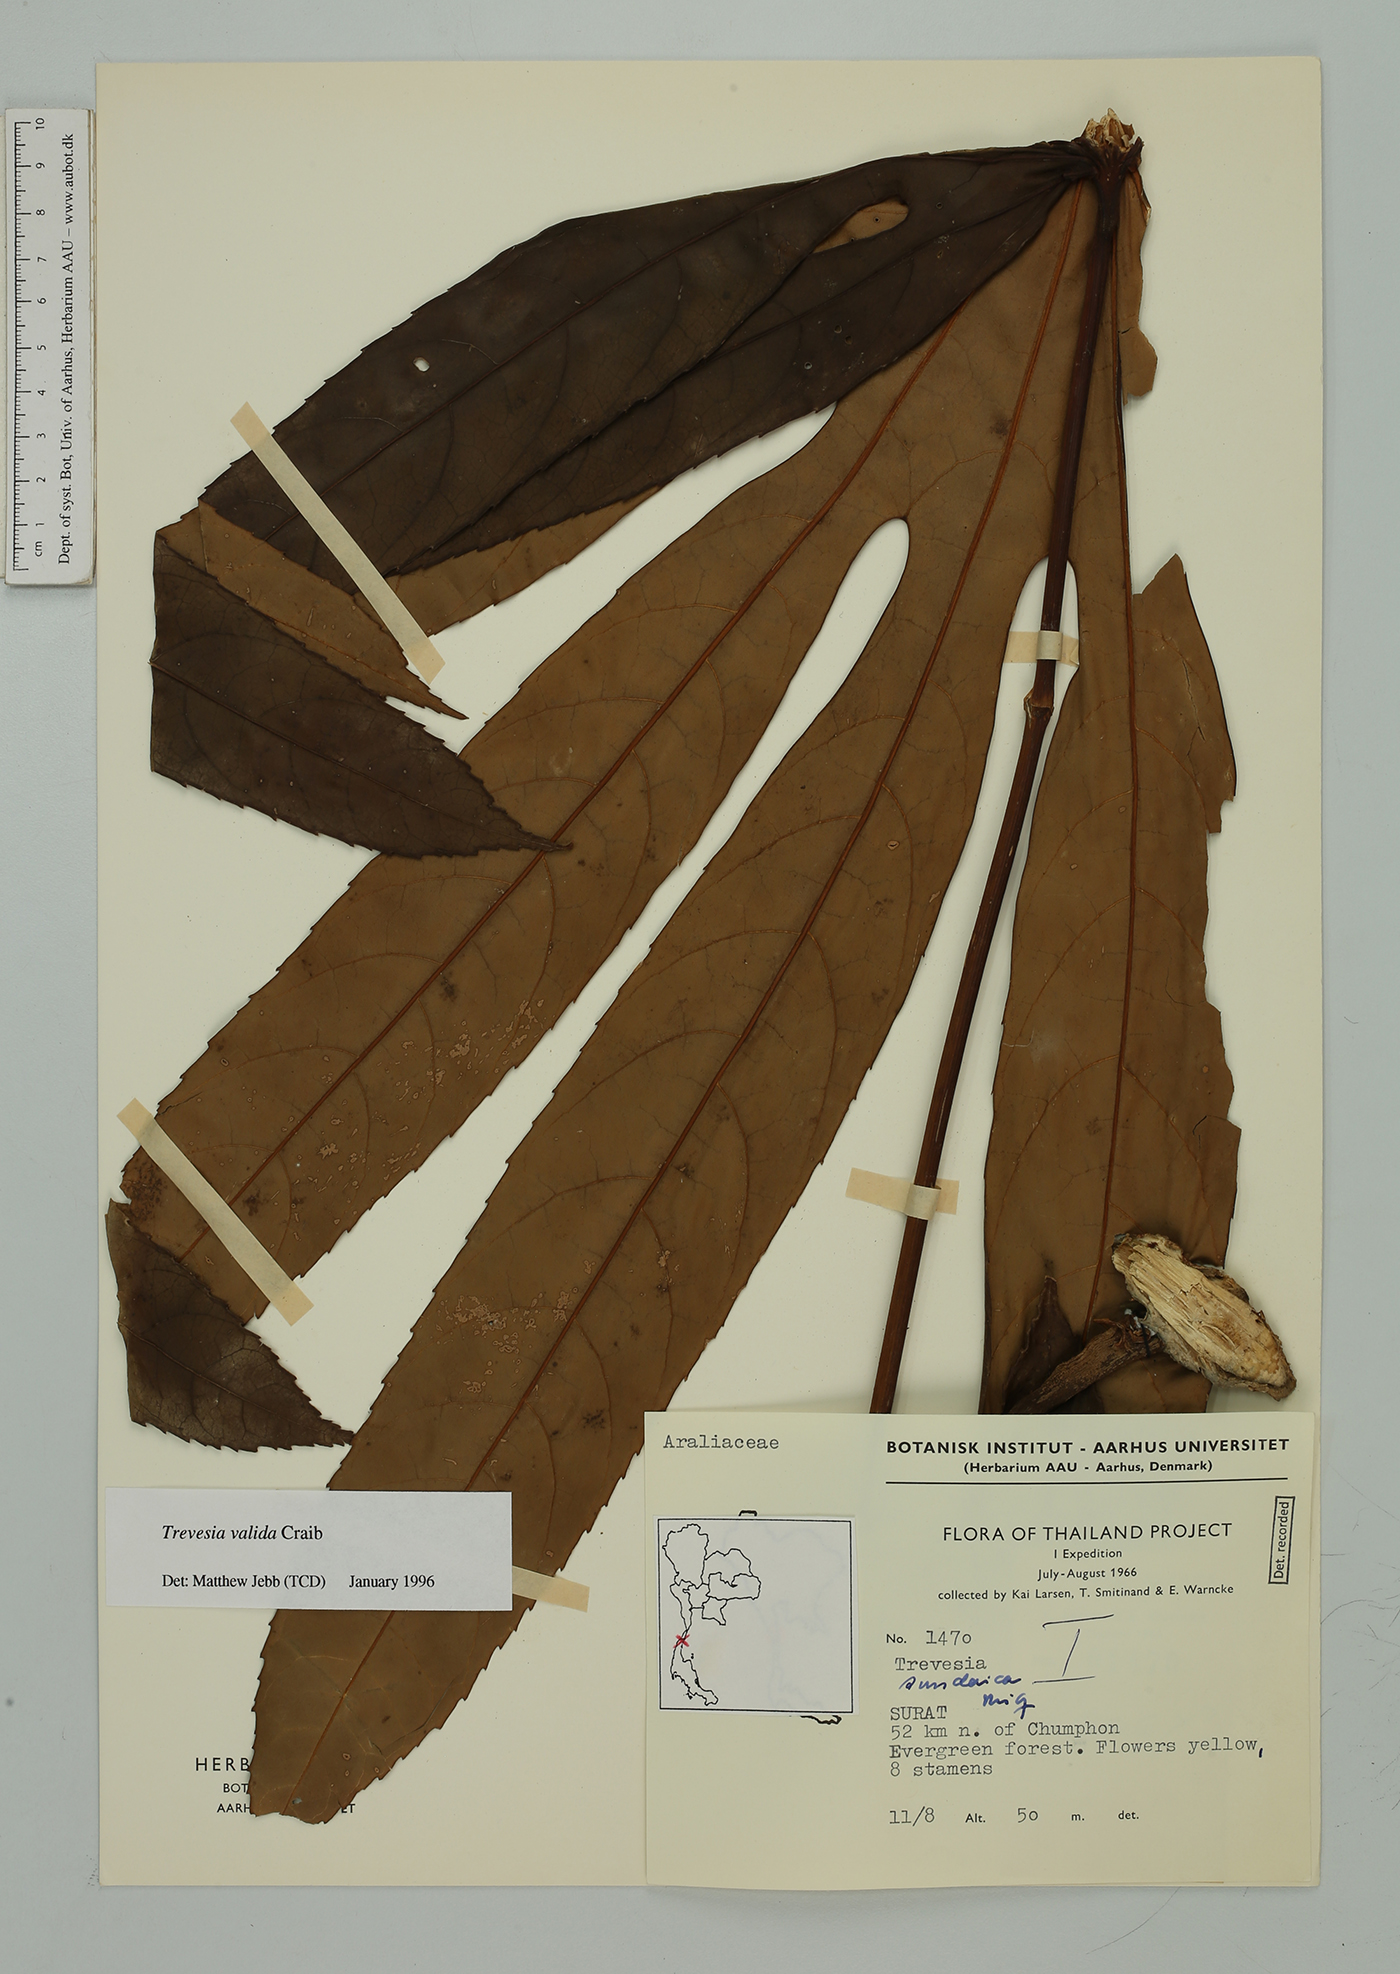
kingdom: Plantae
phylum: Tracheophyta
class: Magnoliopsida
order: Apiales
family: Araliaceae
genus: Trevesia
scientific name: Trevesia valida
